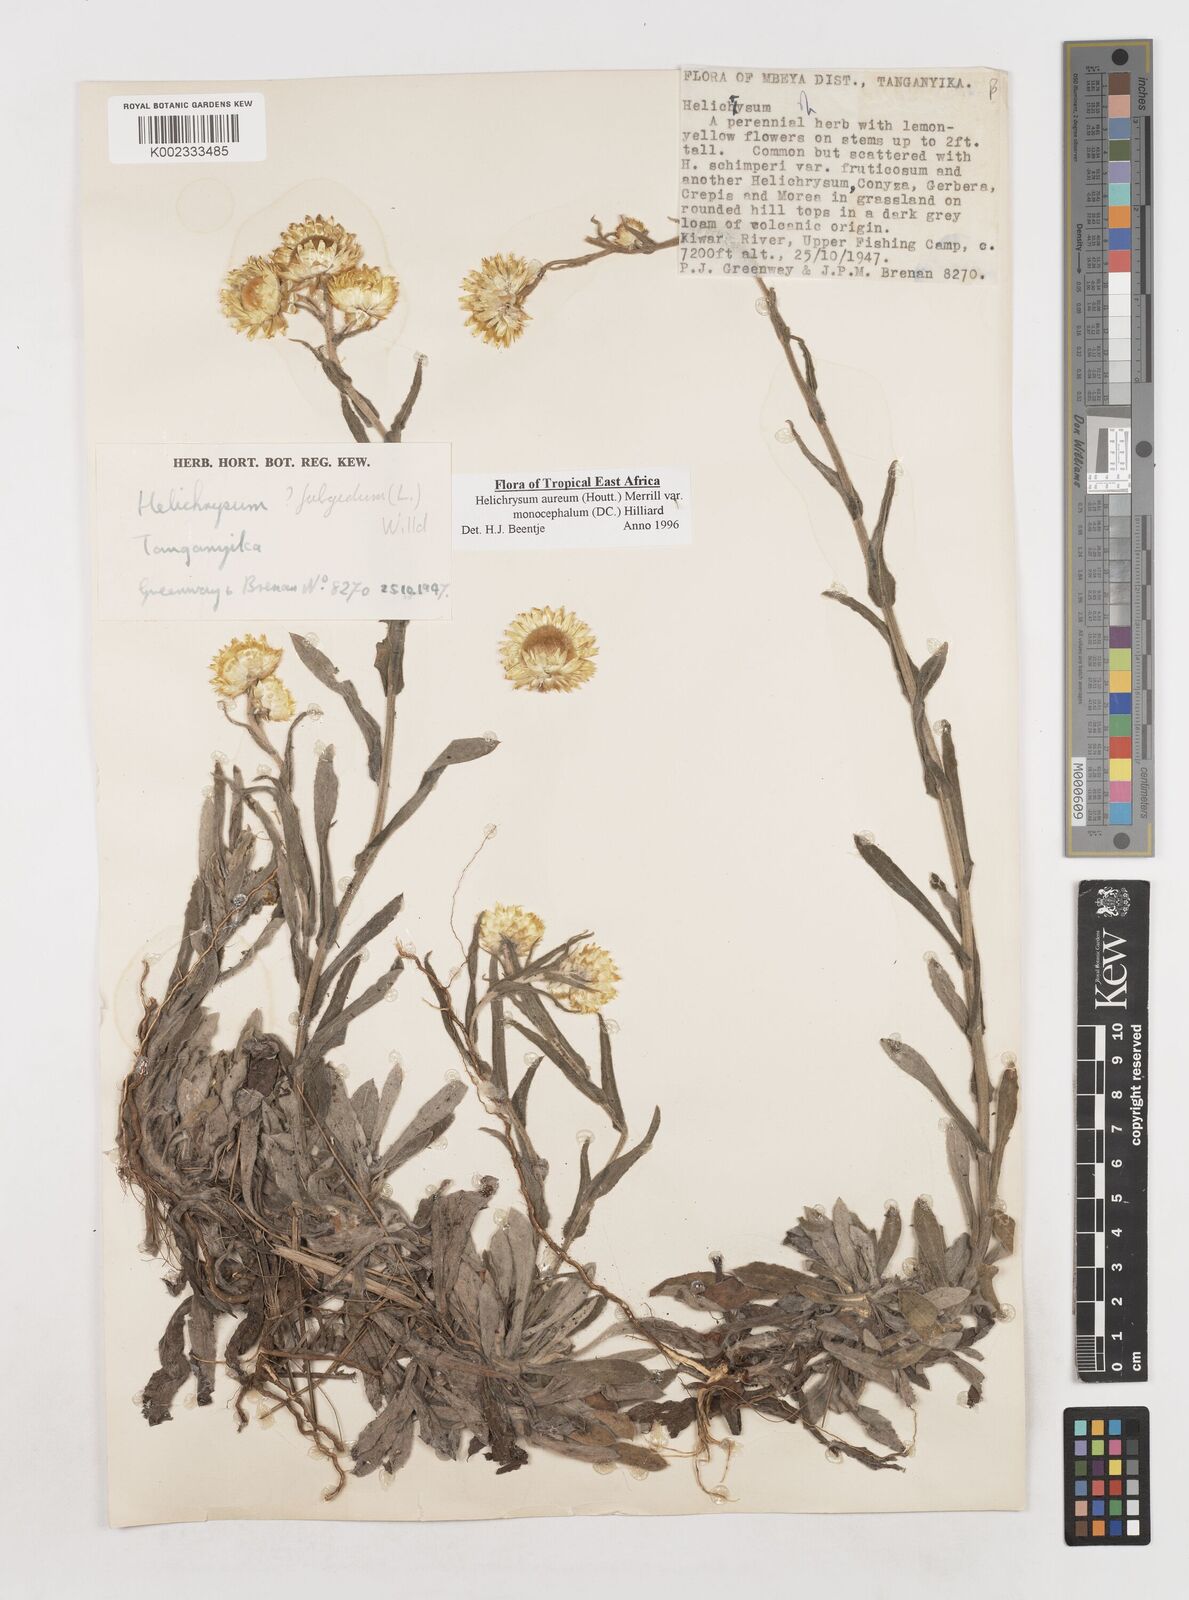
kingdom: Plantae
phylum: Tracheophyta
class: Magnoliopsida
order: Asterales
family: Asteraceae
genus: Helichrysum
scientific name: Helichrysum aureum
